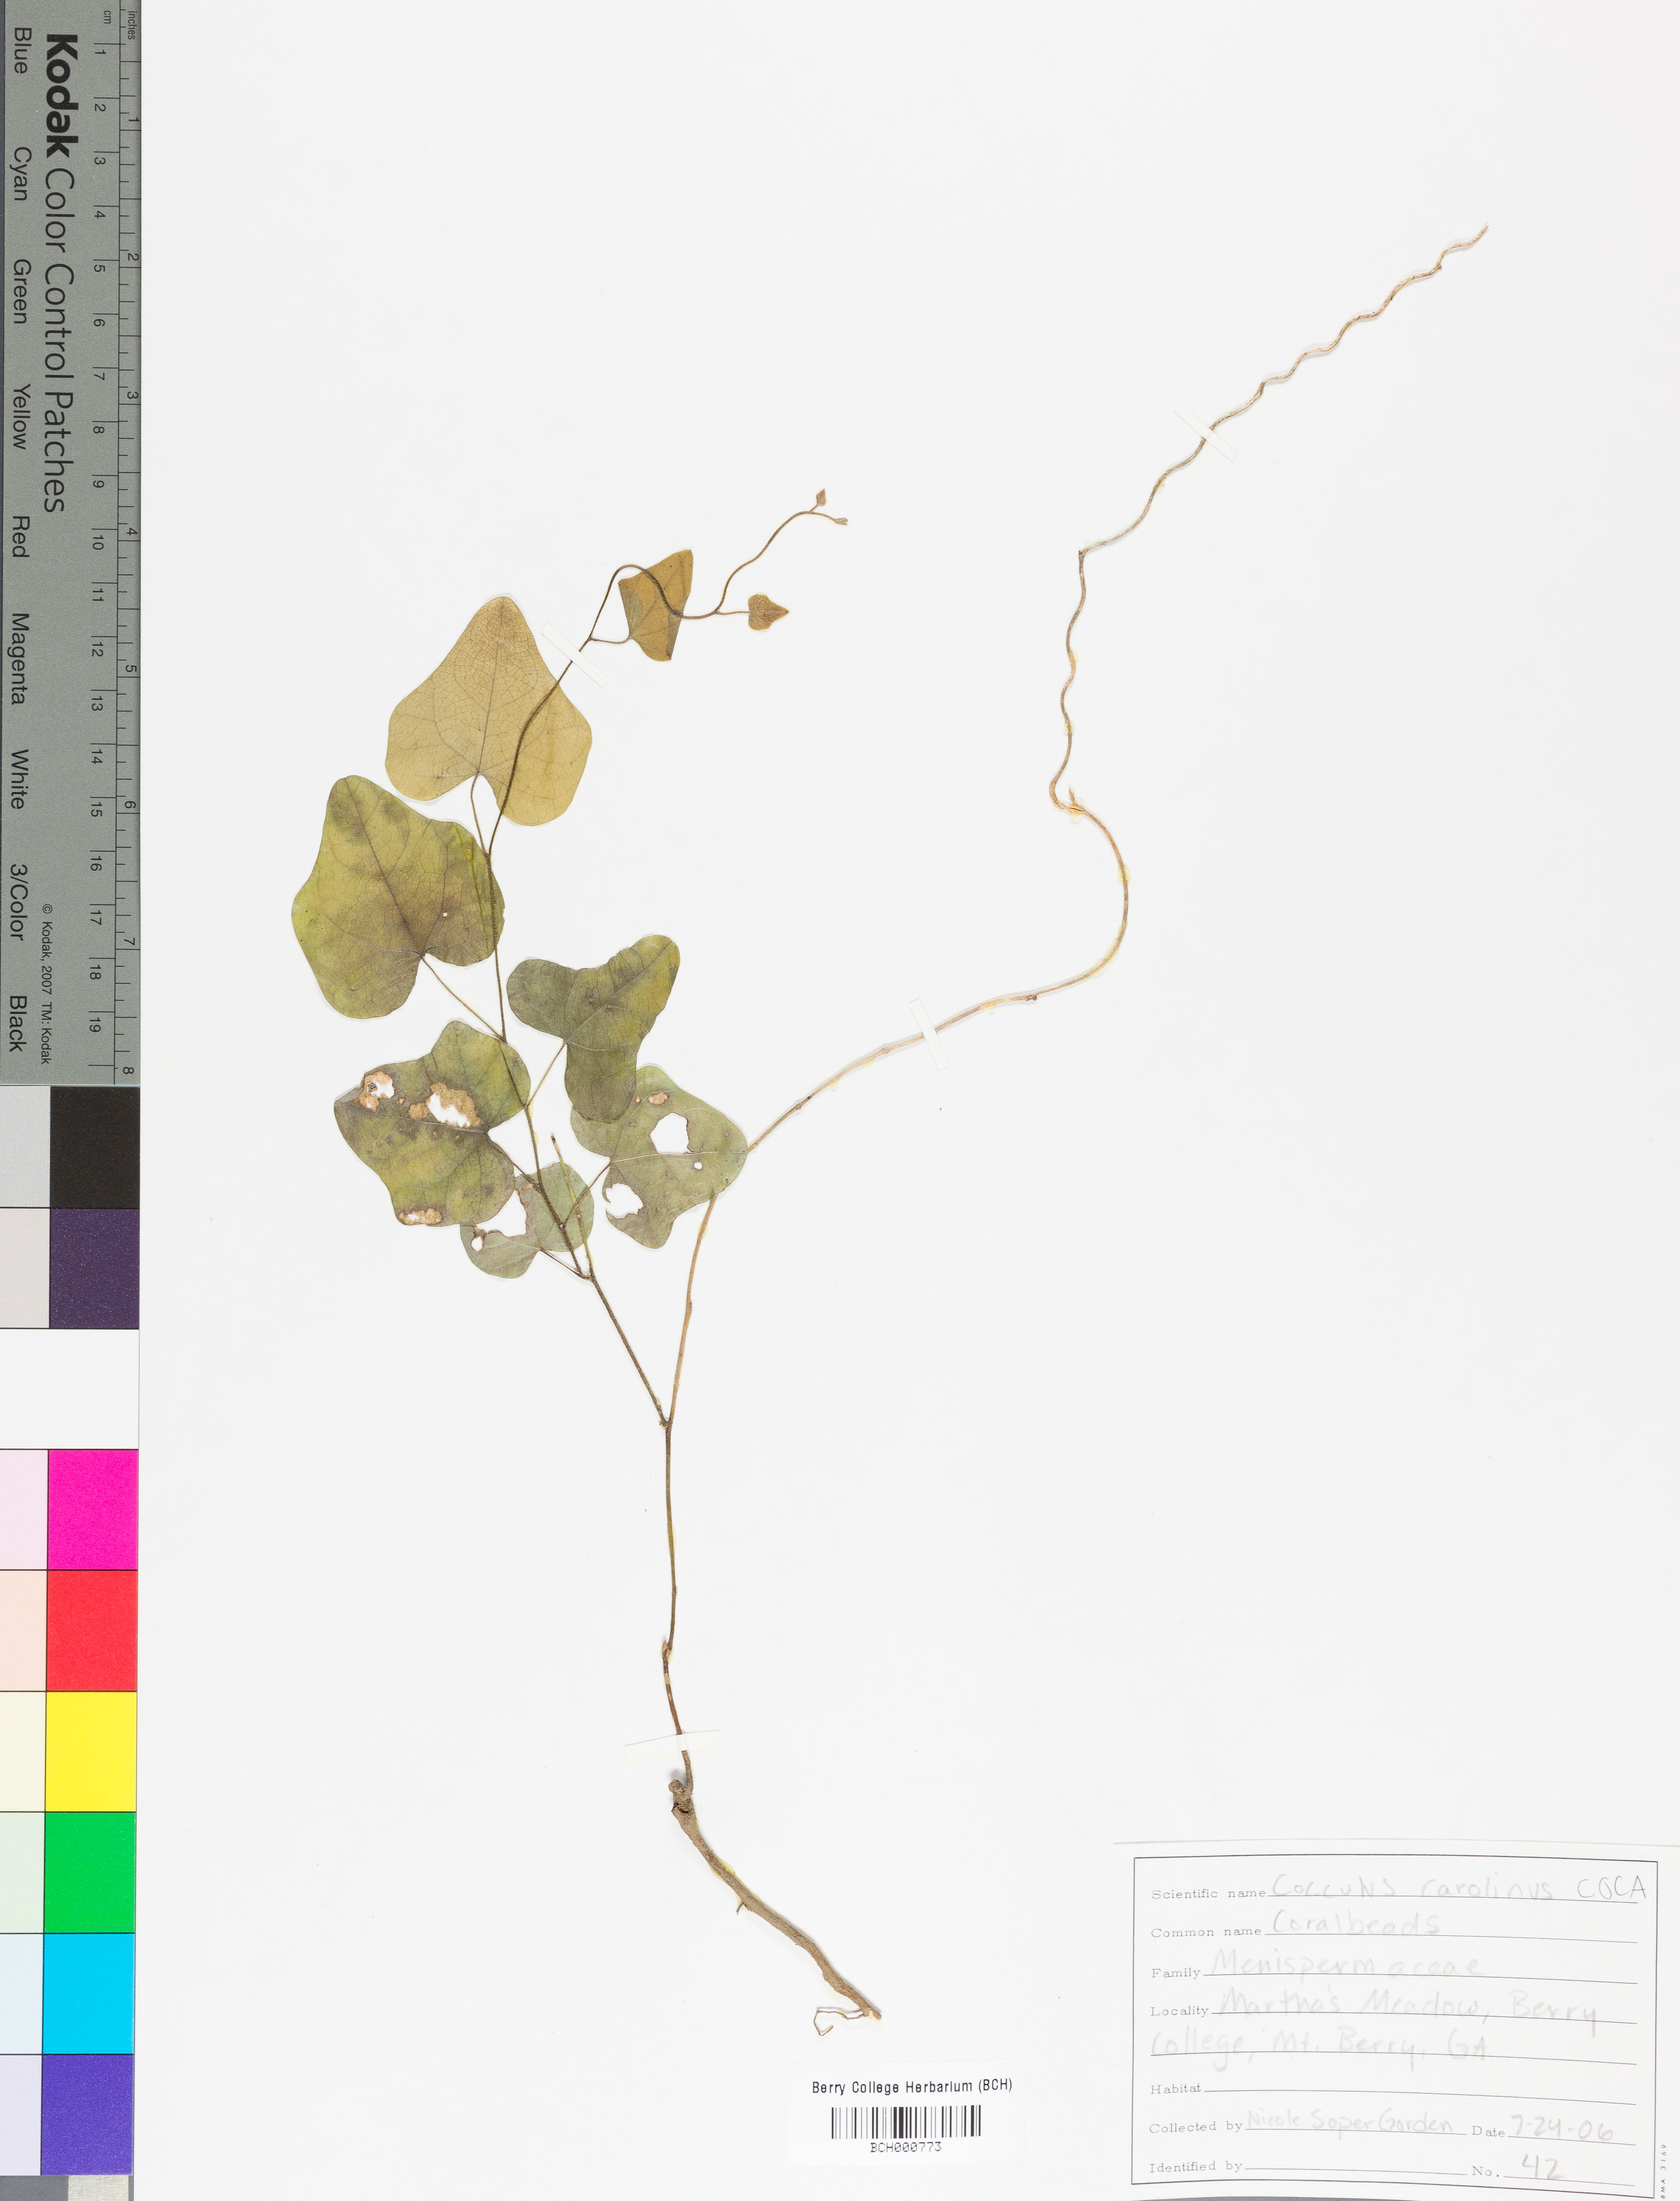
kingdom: Plantae
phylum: Tracheophyta
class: Magnoliopsida
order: Ranunculales
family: Menispermaceae
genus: Cocculus
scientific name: Cocculus carolinus
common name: Carolina moonseed
